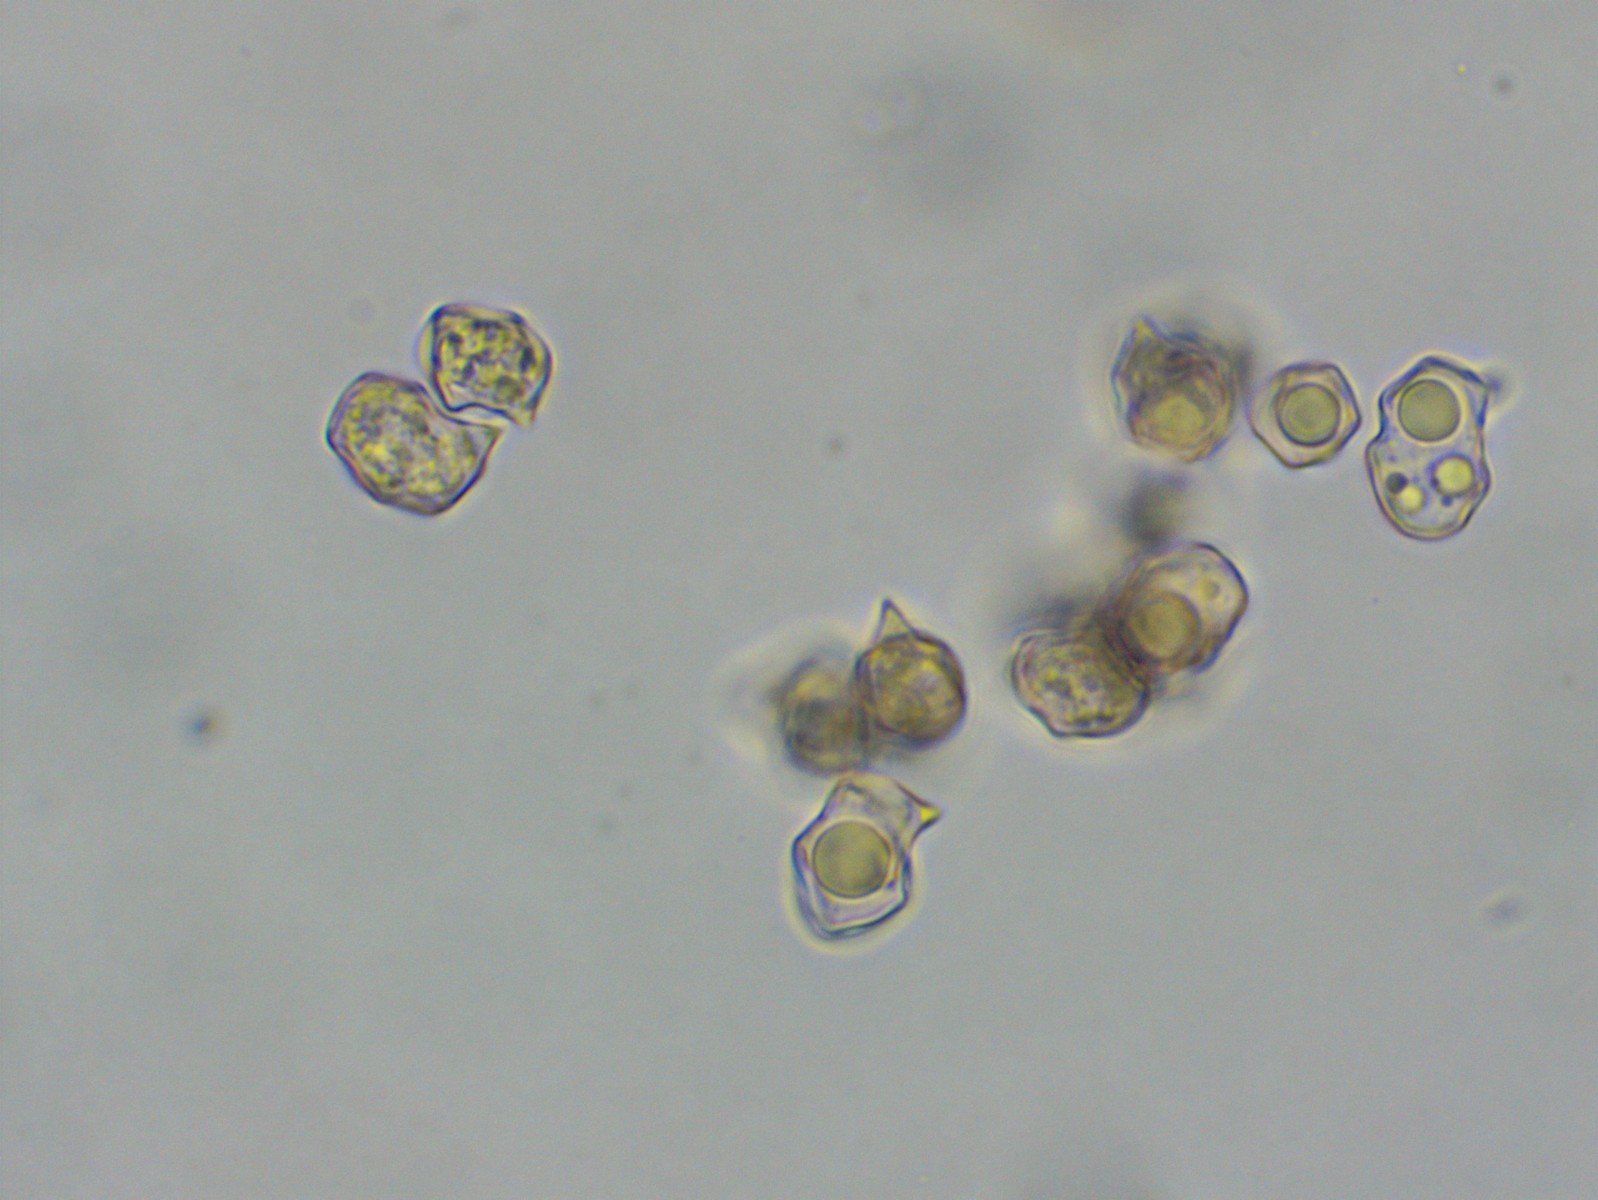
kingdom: Fungi
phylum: Basidiomycota
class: Agaricomycetes
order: Agaricales
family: Entolomataceae
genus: Entoloma
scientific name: Entoloma rhodopolium
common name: skov-rødblad
